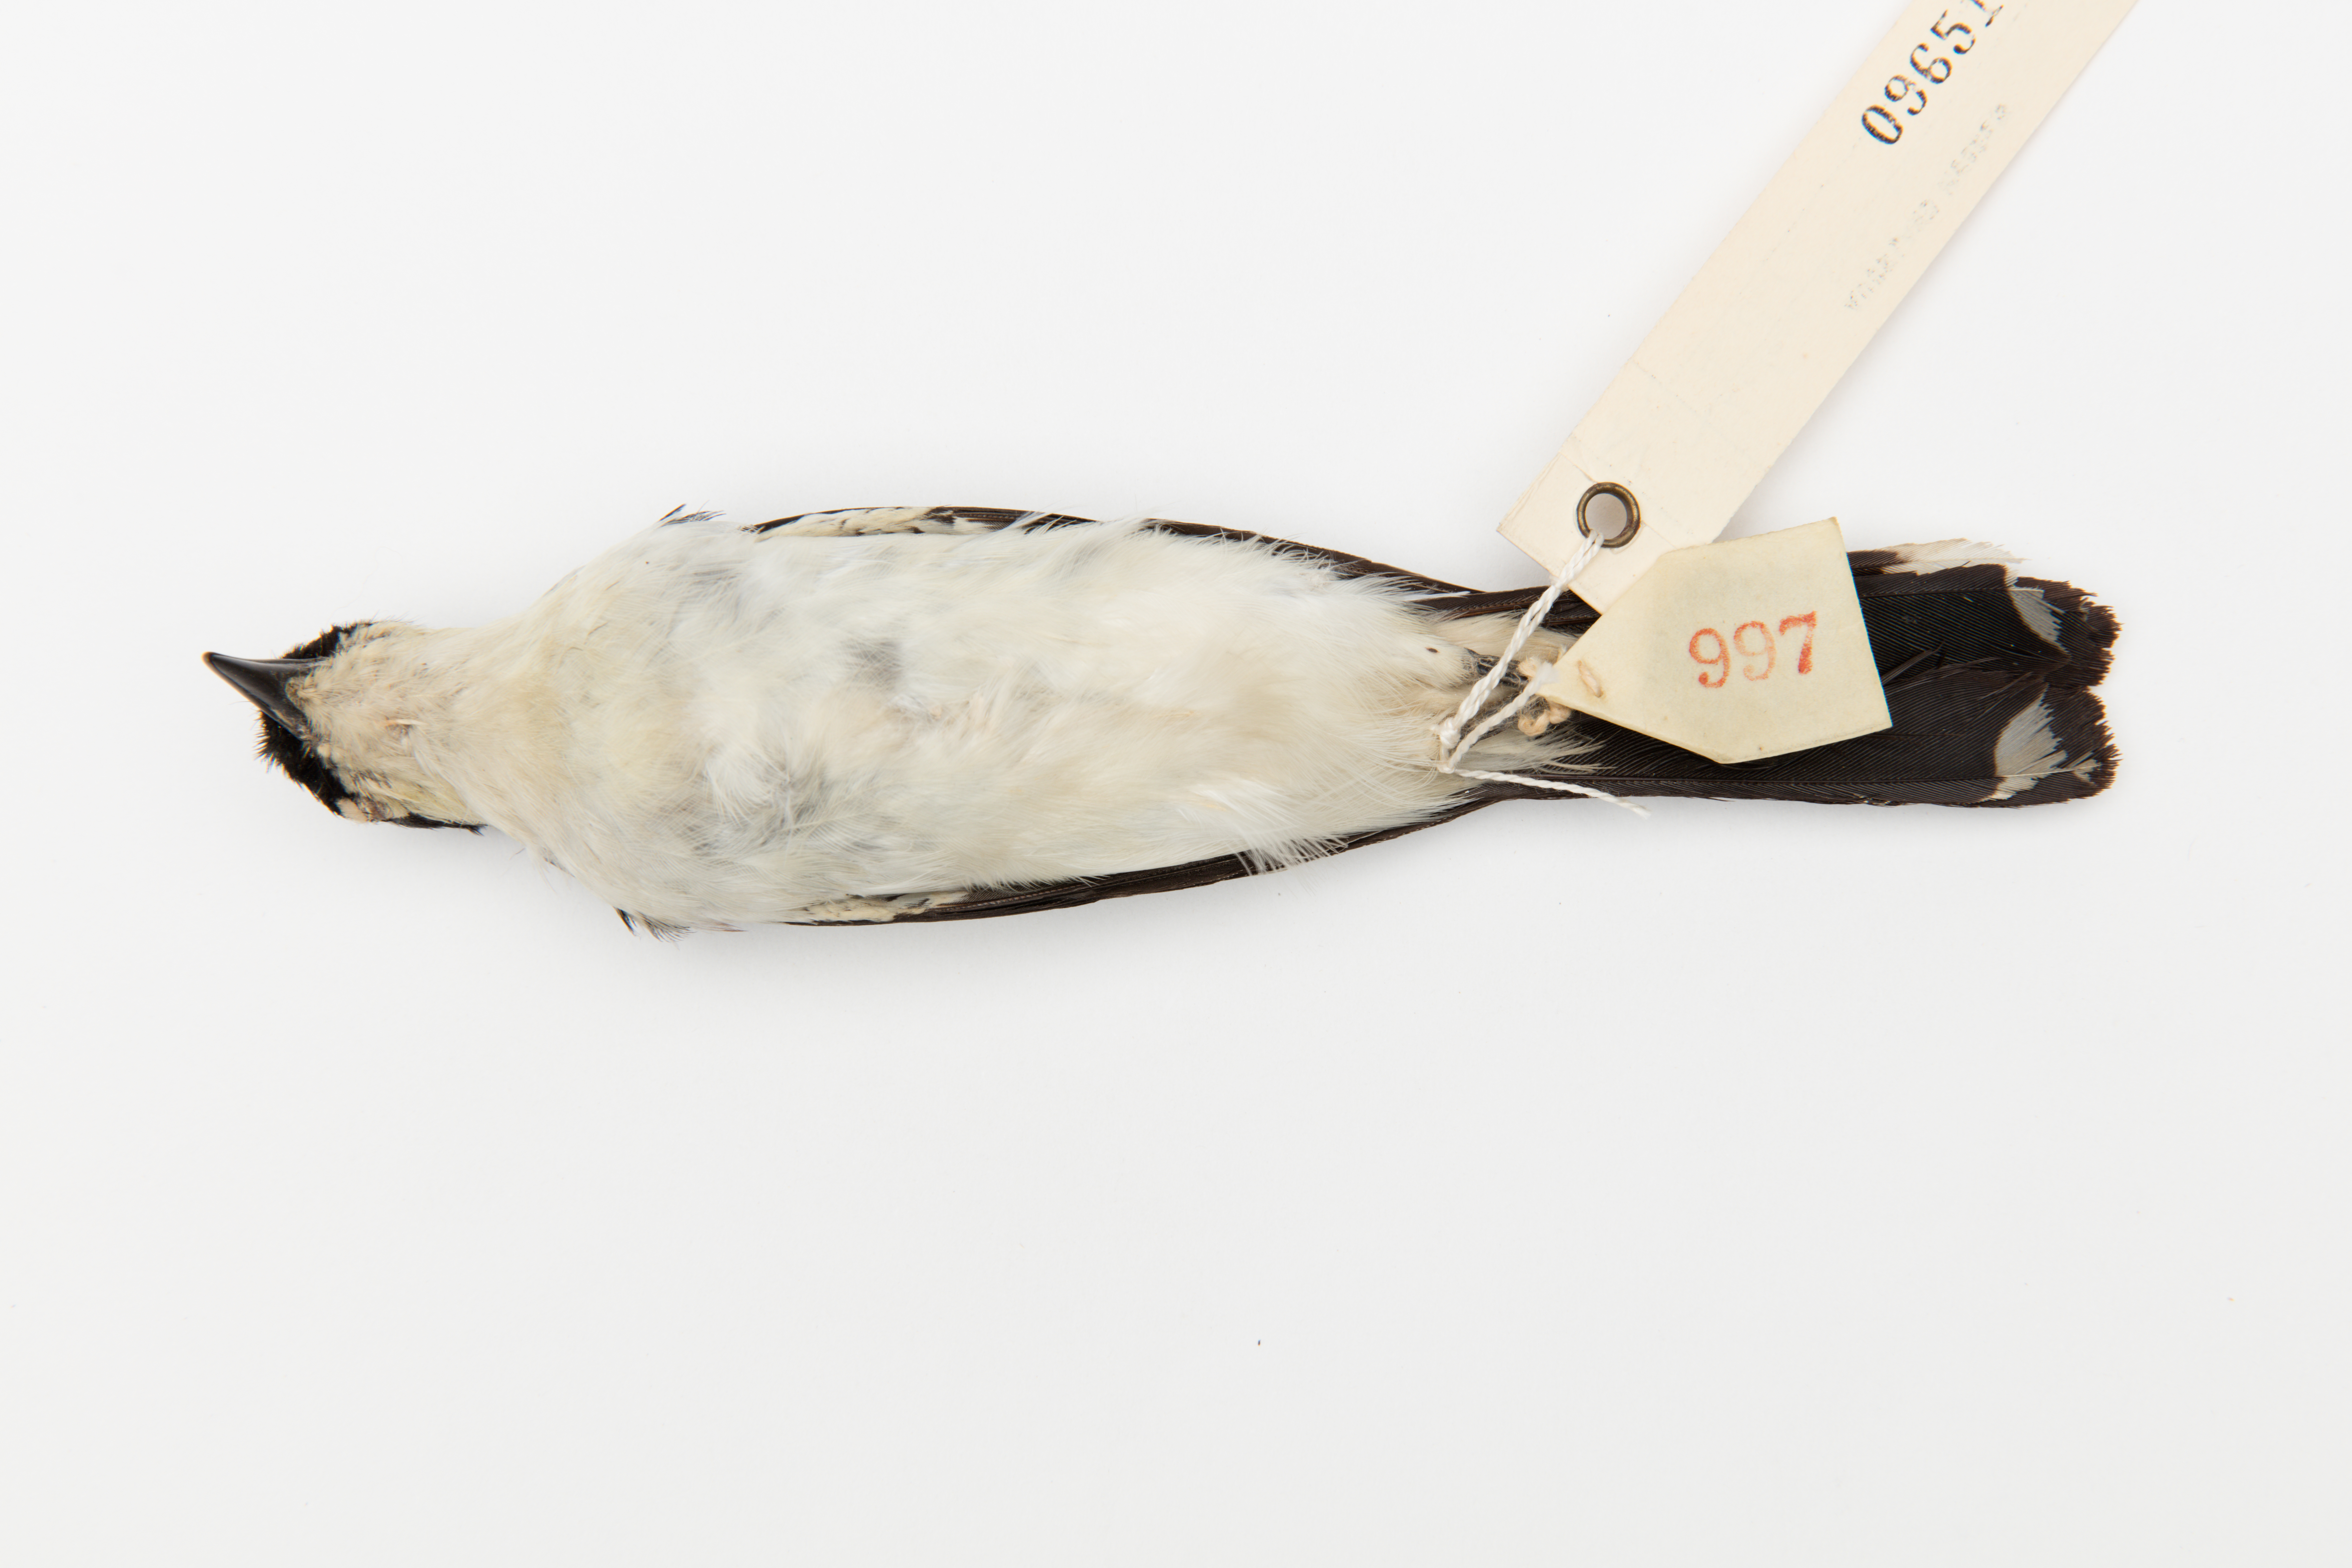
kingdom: Animalia
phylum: Chordata
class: Aves
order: Passeriformes
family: Campephagidae
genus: Lalage
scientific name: Lalage sueurii
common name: White-shouldered triller
